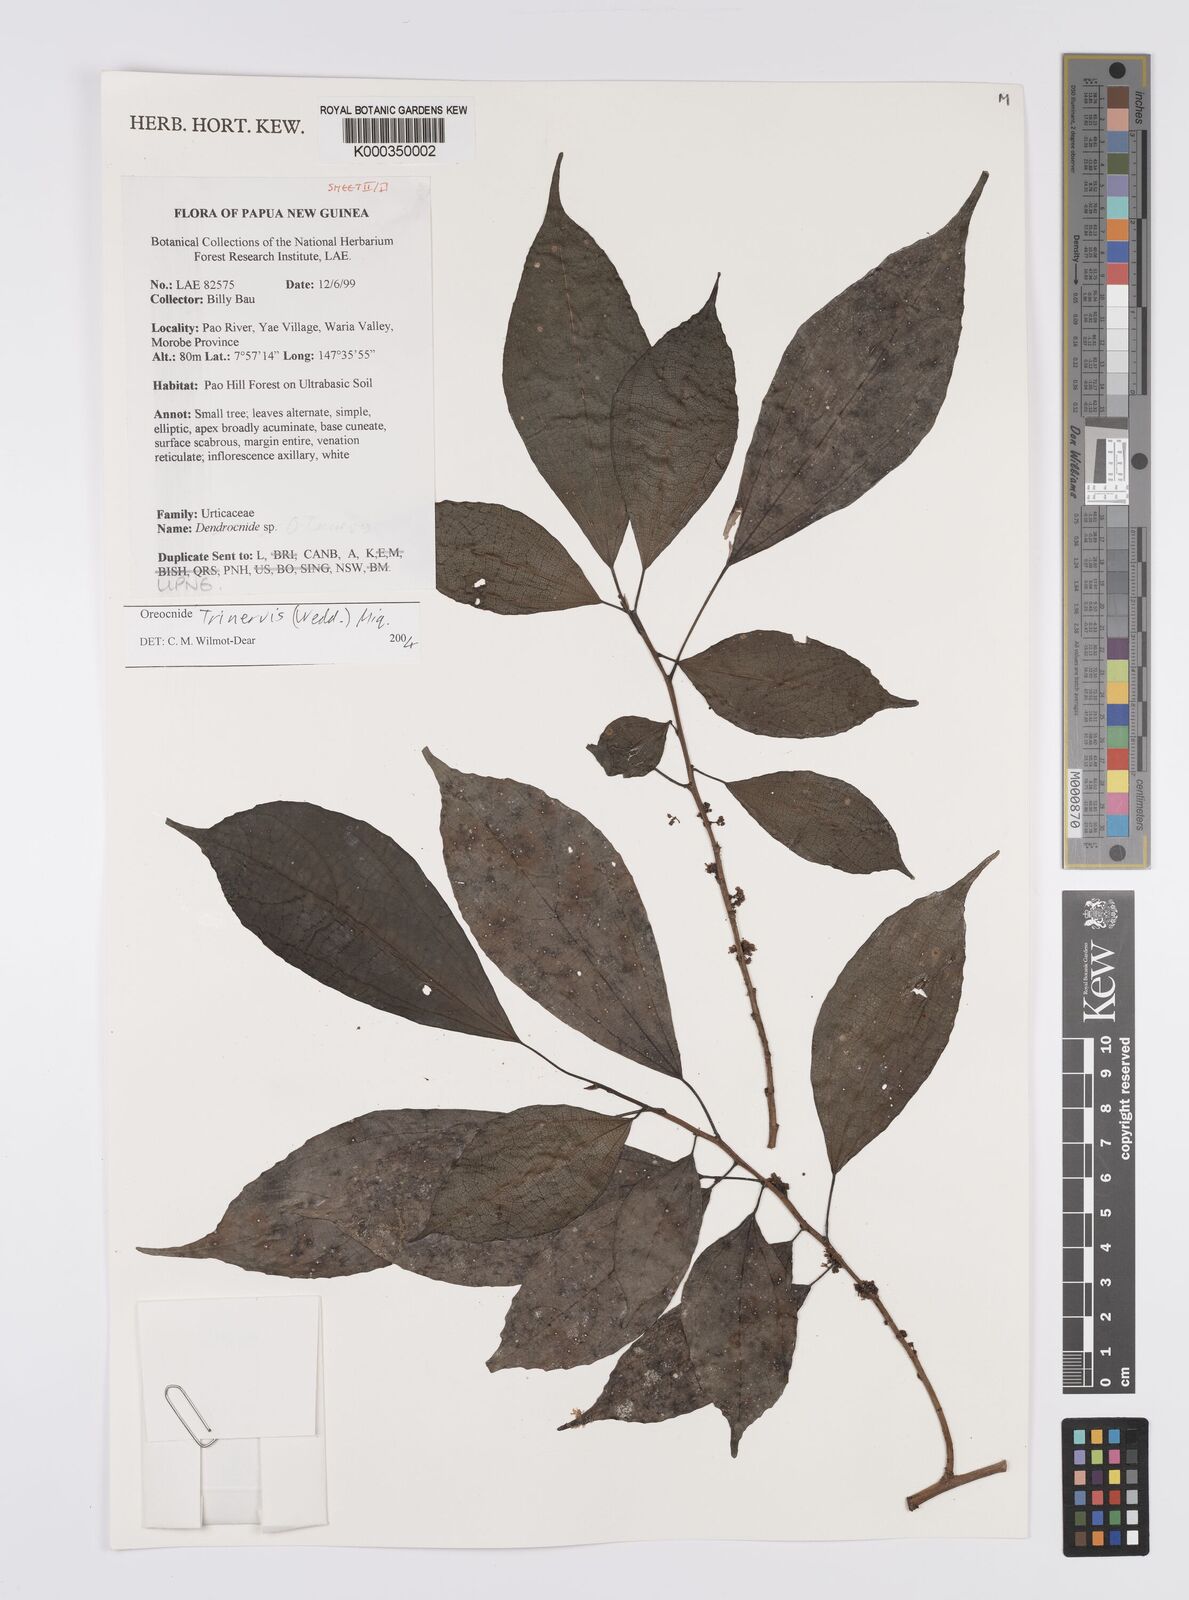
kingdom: Plantae
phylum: Tracheophyta
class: Magnoliopsida
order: Rosales
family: Urticaceae
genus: Oreocnide
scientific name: Oreocnide trinervis
